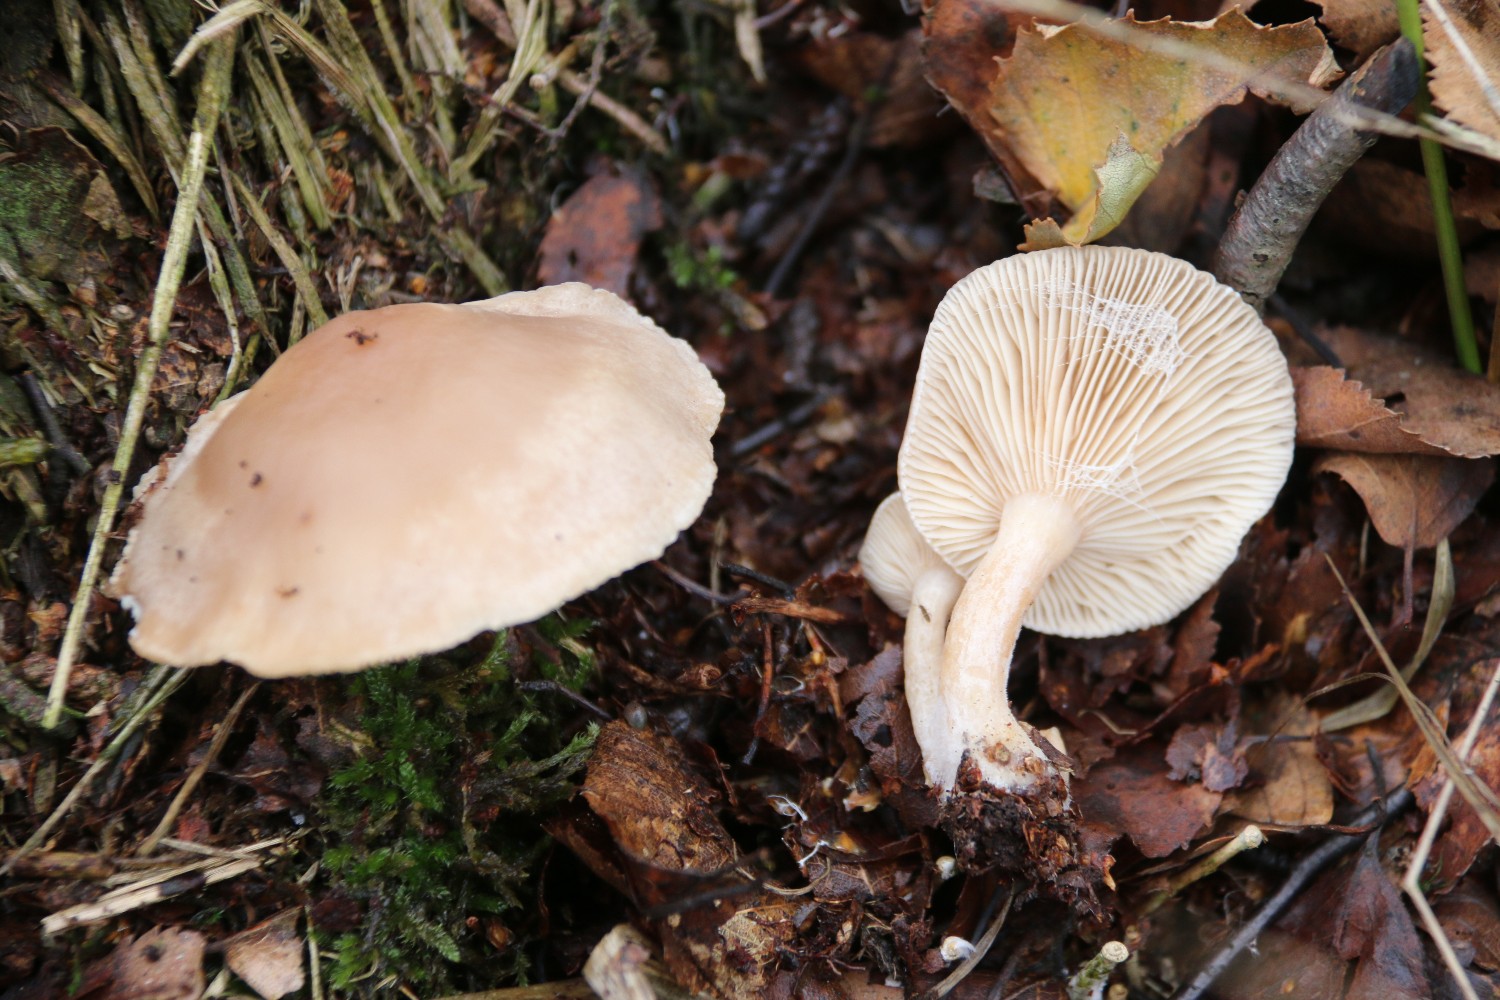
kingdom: Fungi
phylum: Basidiomycota
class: Agaricomycetes
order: Russulales
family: Russulaceae
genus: Lactarius
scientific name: Lactarius vietus
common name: violetgrå mælkehat
